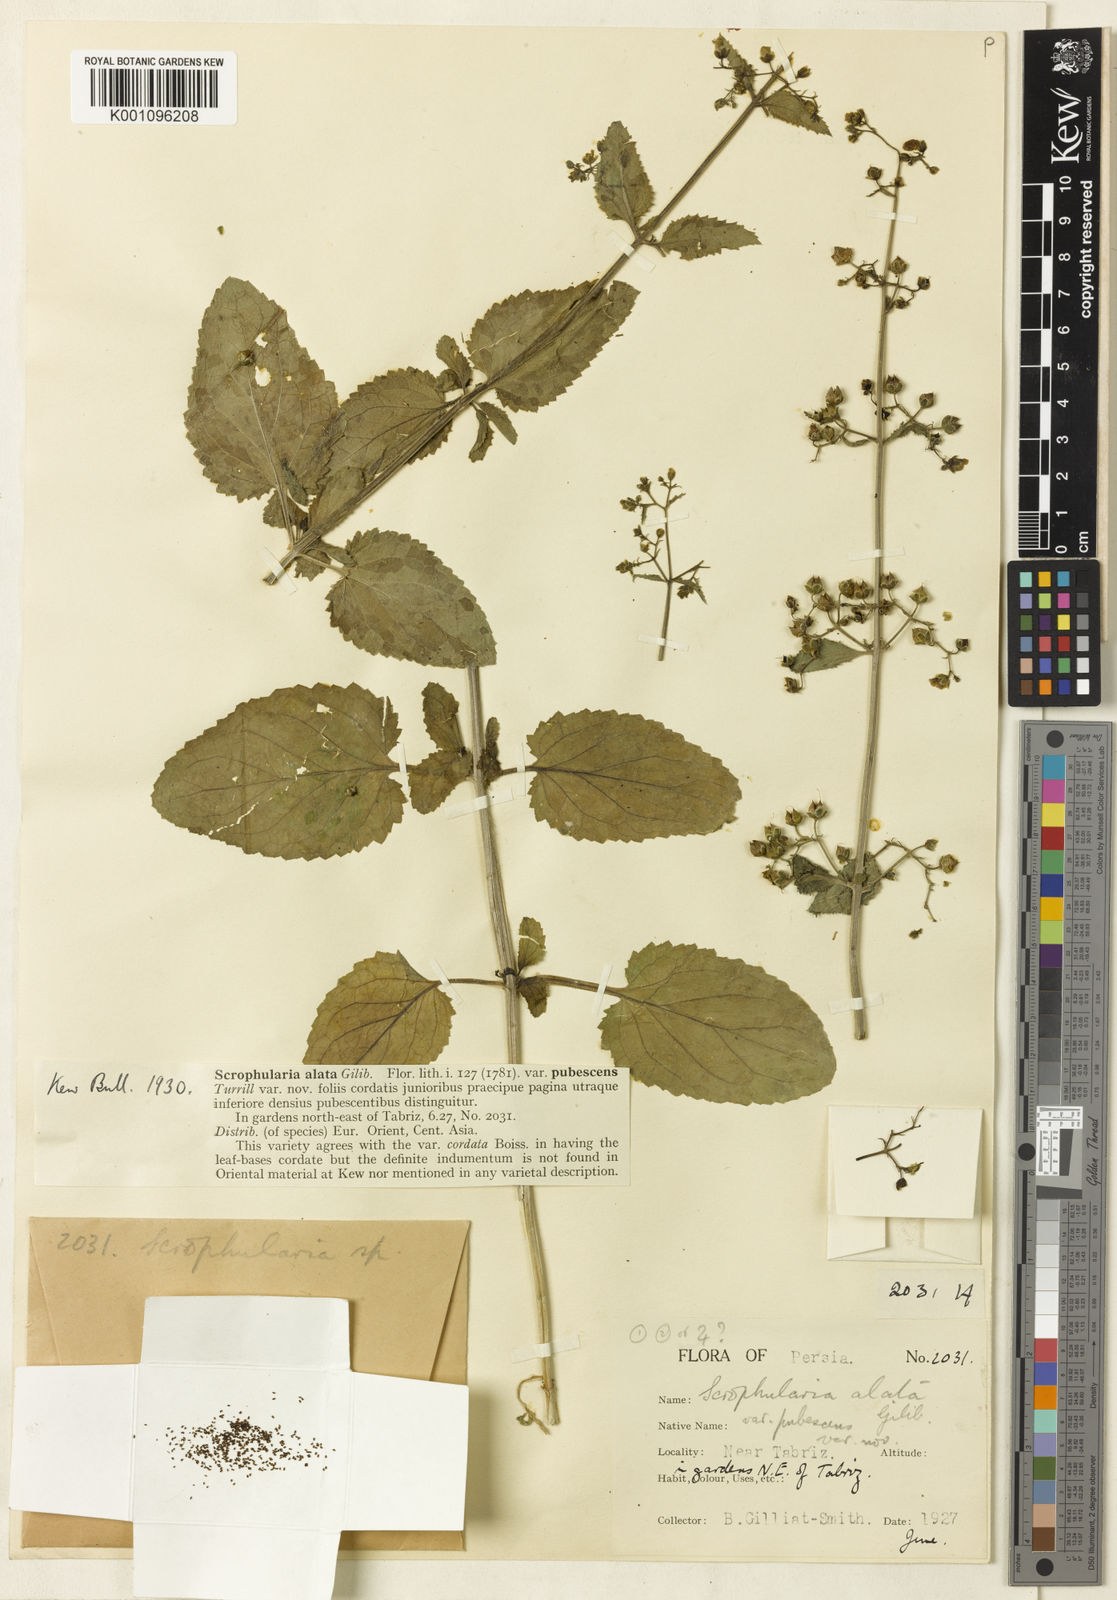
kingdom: Plantae
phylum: Tracheophyta
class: Magnoliopsida
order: Lamiales
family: Scrophulariaceae
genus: Scrophularia
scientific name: Scrophularia
